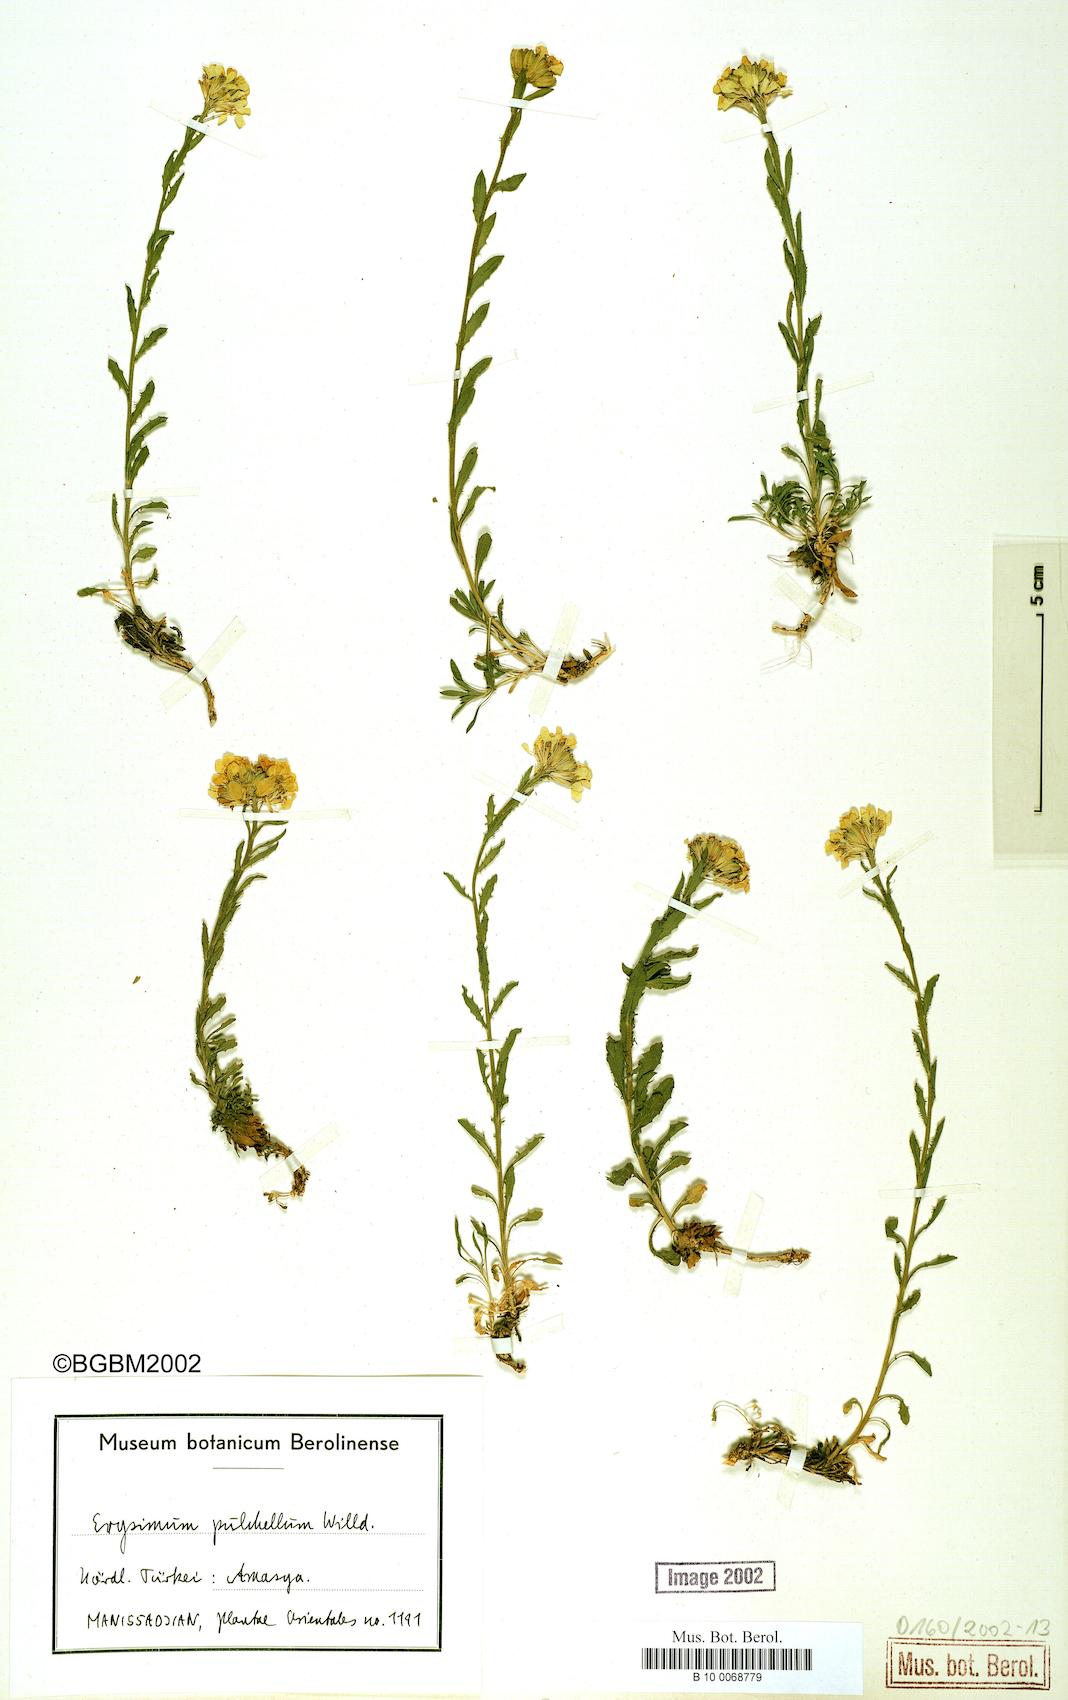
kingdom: Plantae
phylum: Tracheophyta
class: Magnoliopsida
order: Brassicales
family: Brassicaceae
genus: Erysimum
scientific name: Erysimum pulchellum
